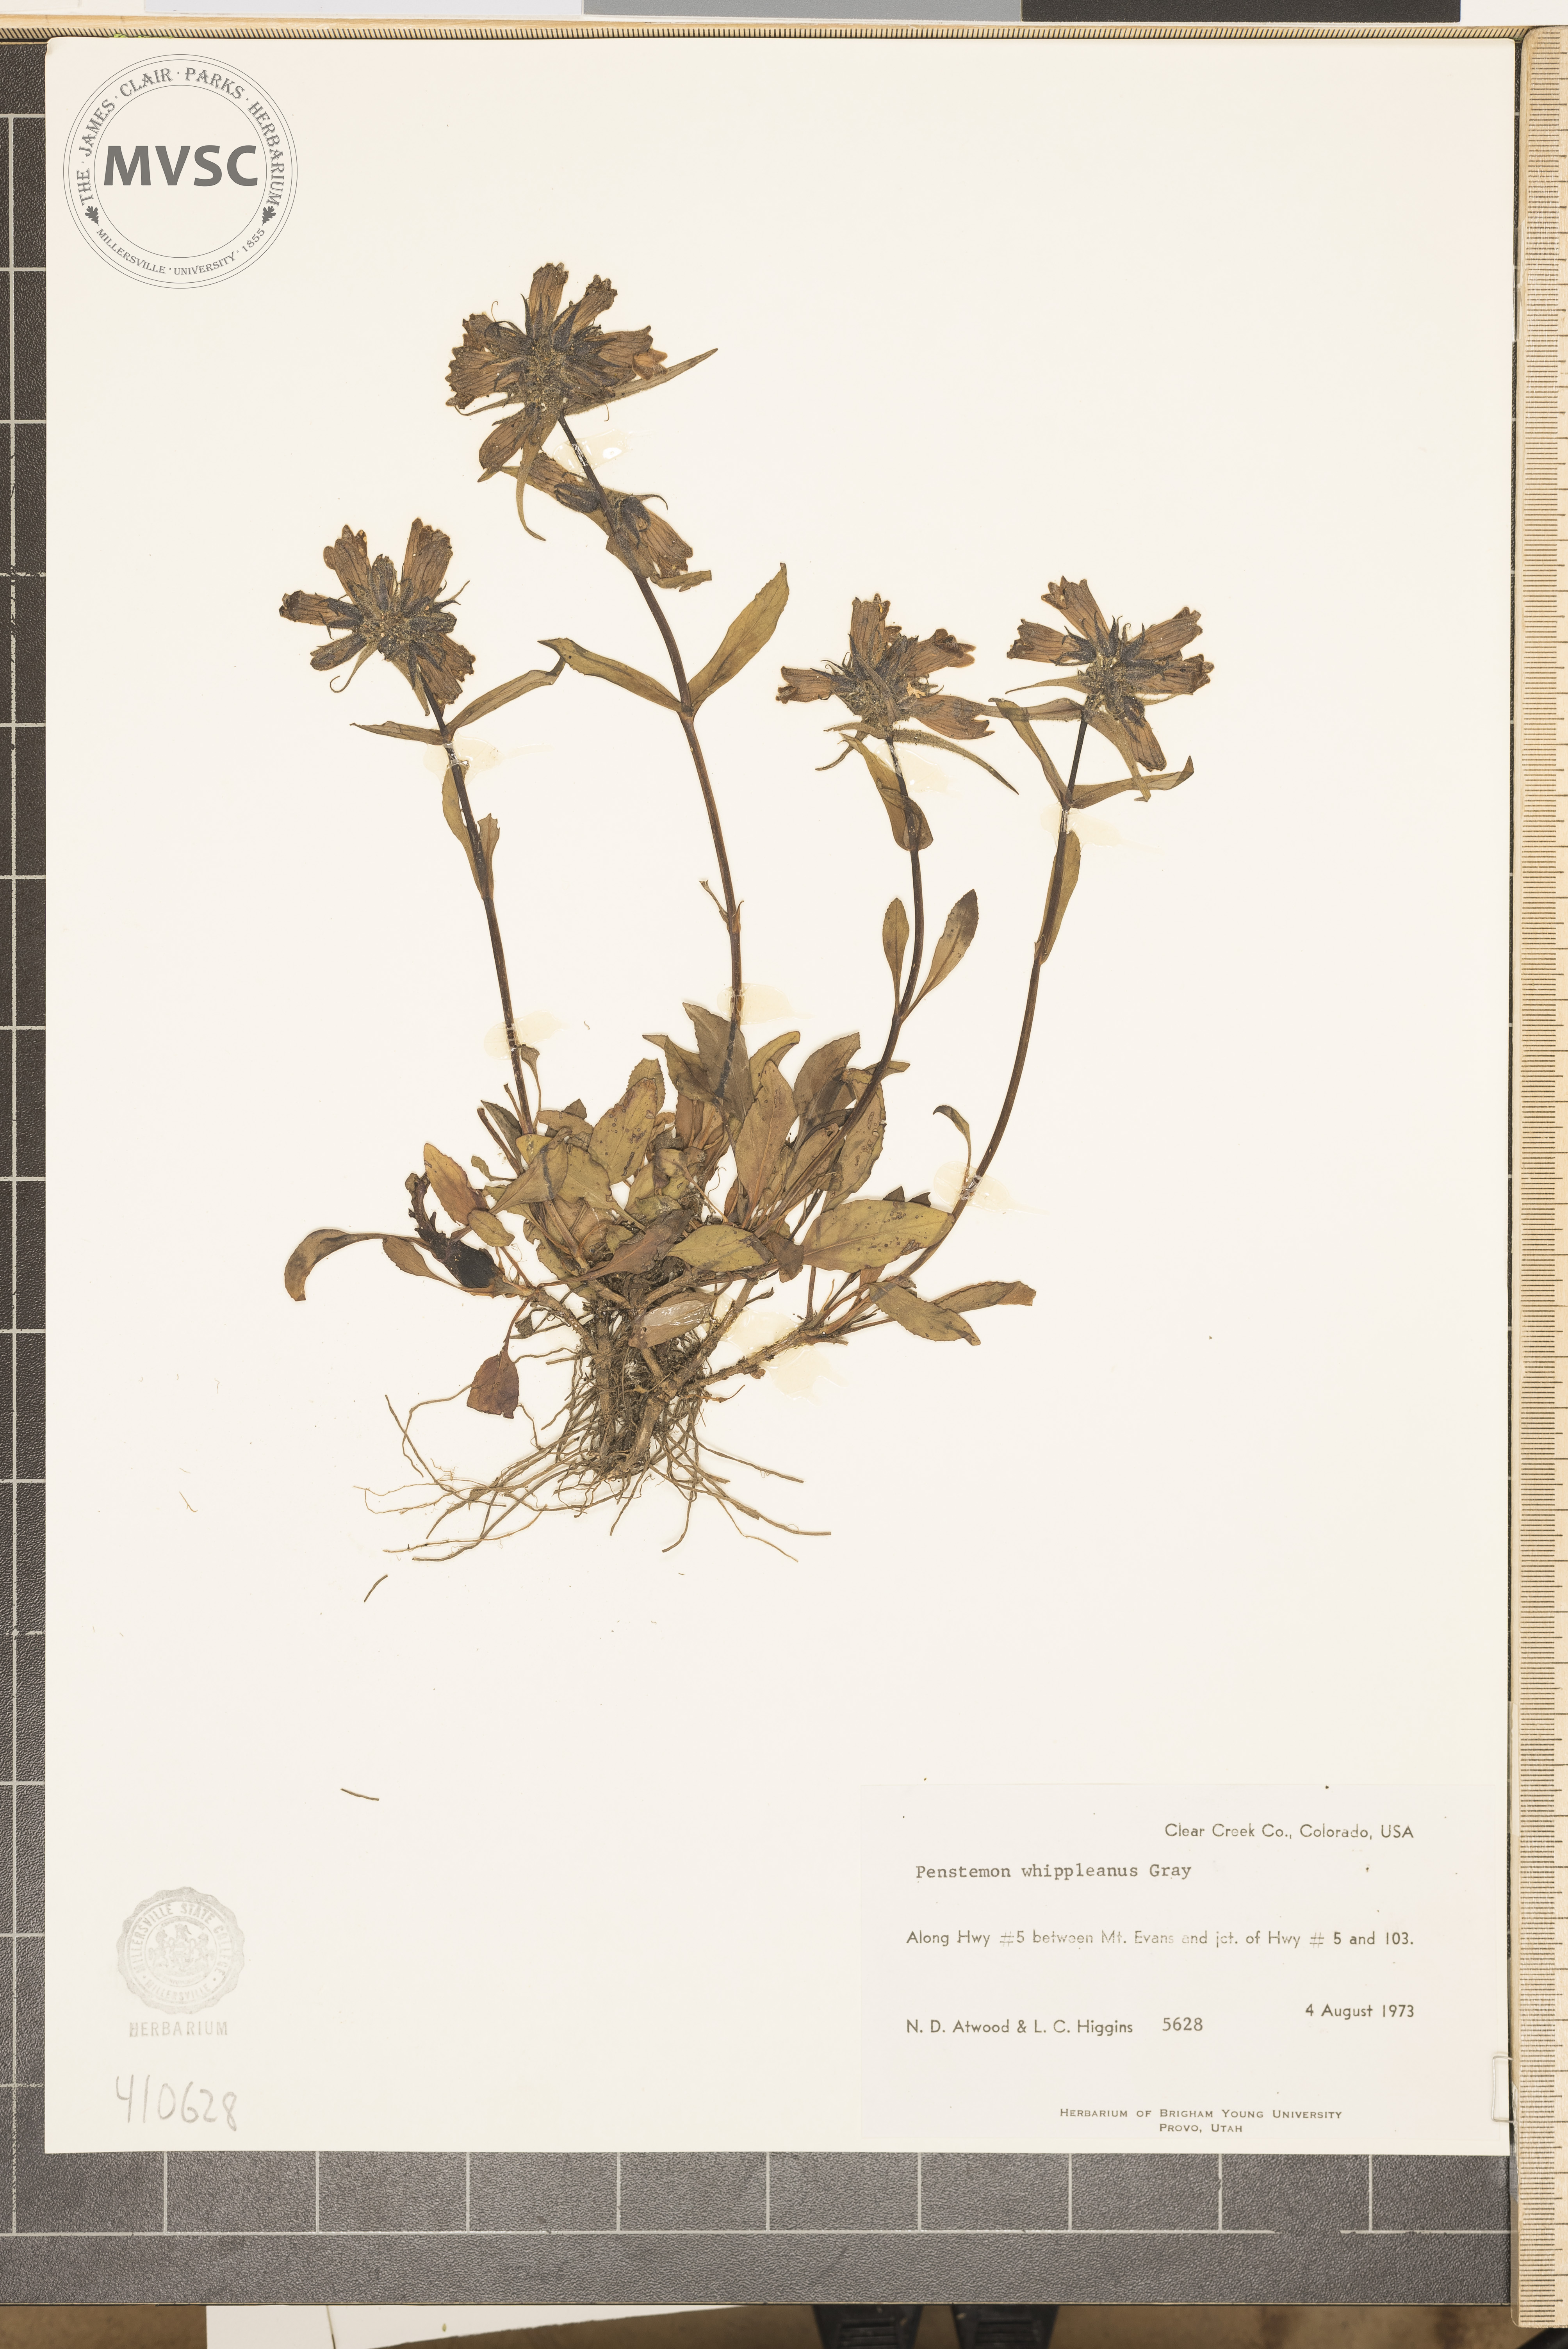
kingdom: Plantae
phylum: Tracheophyta
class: Magnoliopsida
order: Lamiales
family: Plantaginaceae
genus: Penstemon
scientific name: Penstemon whippleanus
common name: Whipple's penstemon
